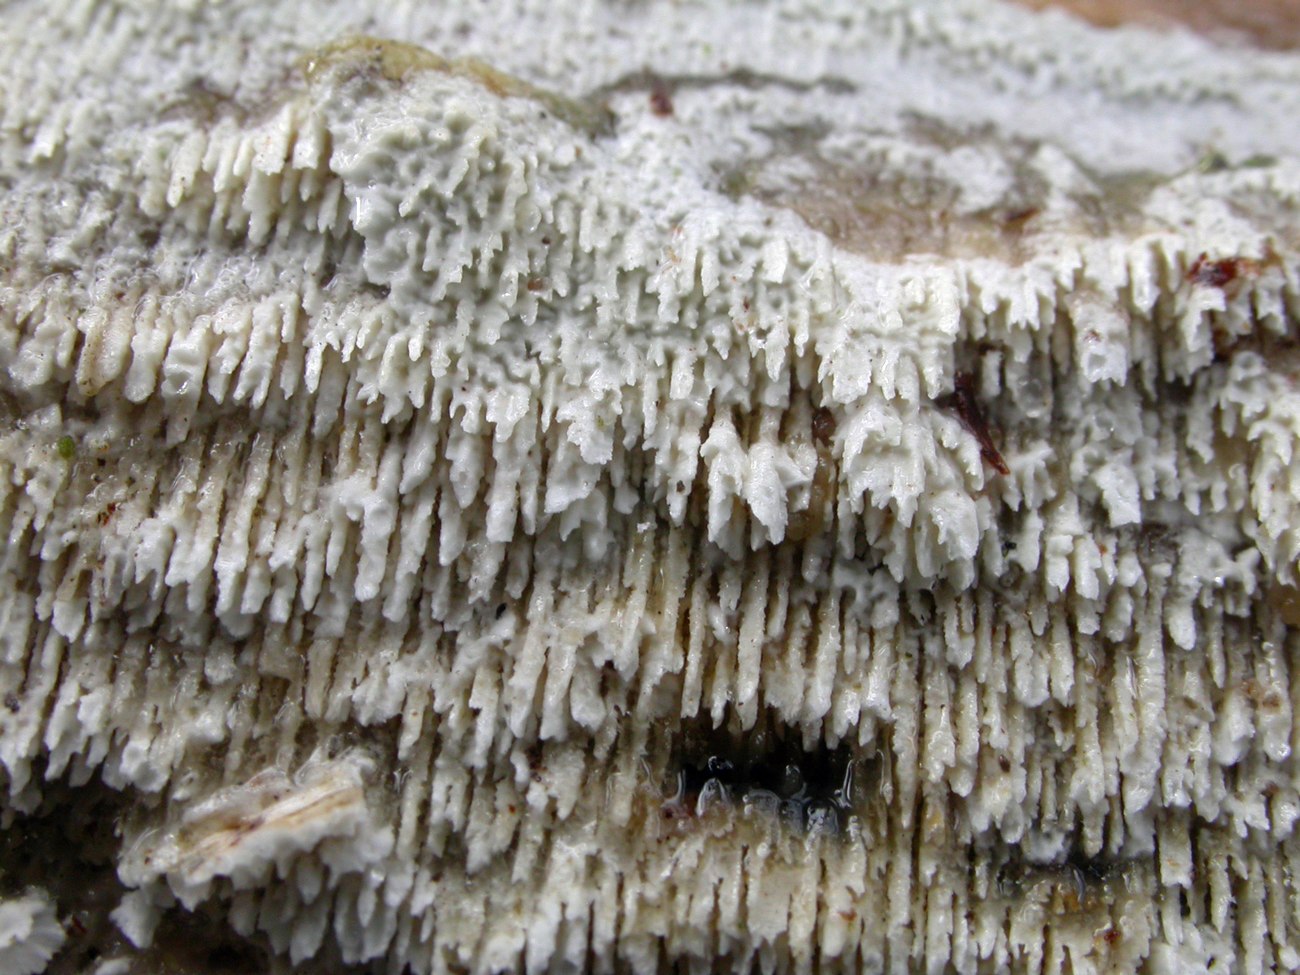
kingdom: Fungi
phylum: Basidiomycota
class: Agaricomycetes
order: Hymenochaetales
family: Schizoporaceae
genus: Schizopora
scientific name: Schizopora paradoxa
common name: hvid tandsvamp
